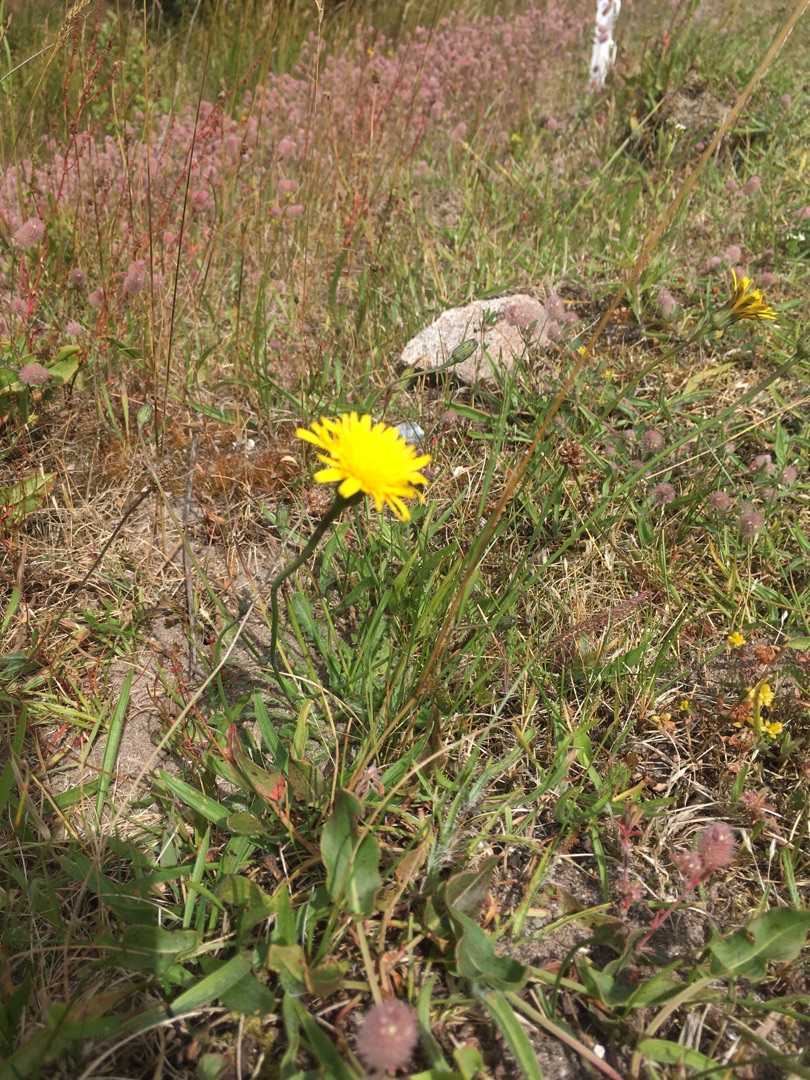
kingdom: Plantae
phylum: Tracheophyta
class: Magnoliopsida
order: Asterales
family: Asteraceae
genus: Hypochaeris
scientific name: Hypochaeris radicata
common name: Almindelig kongepen
